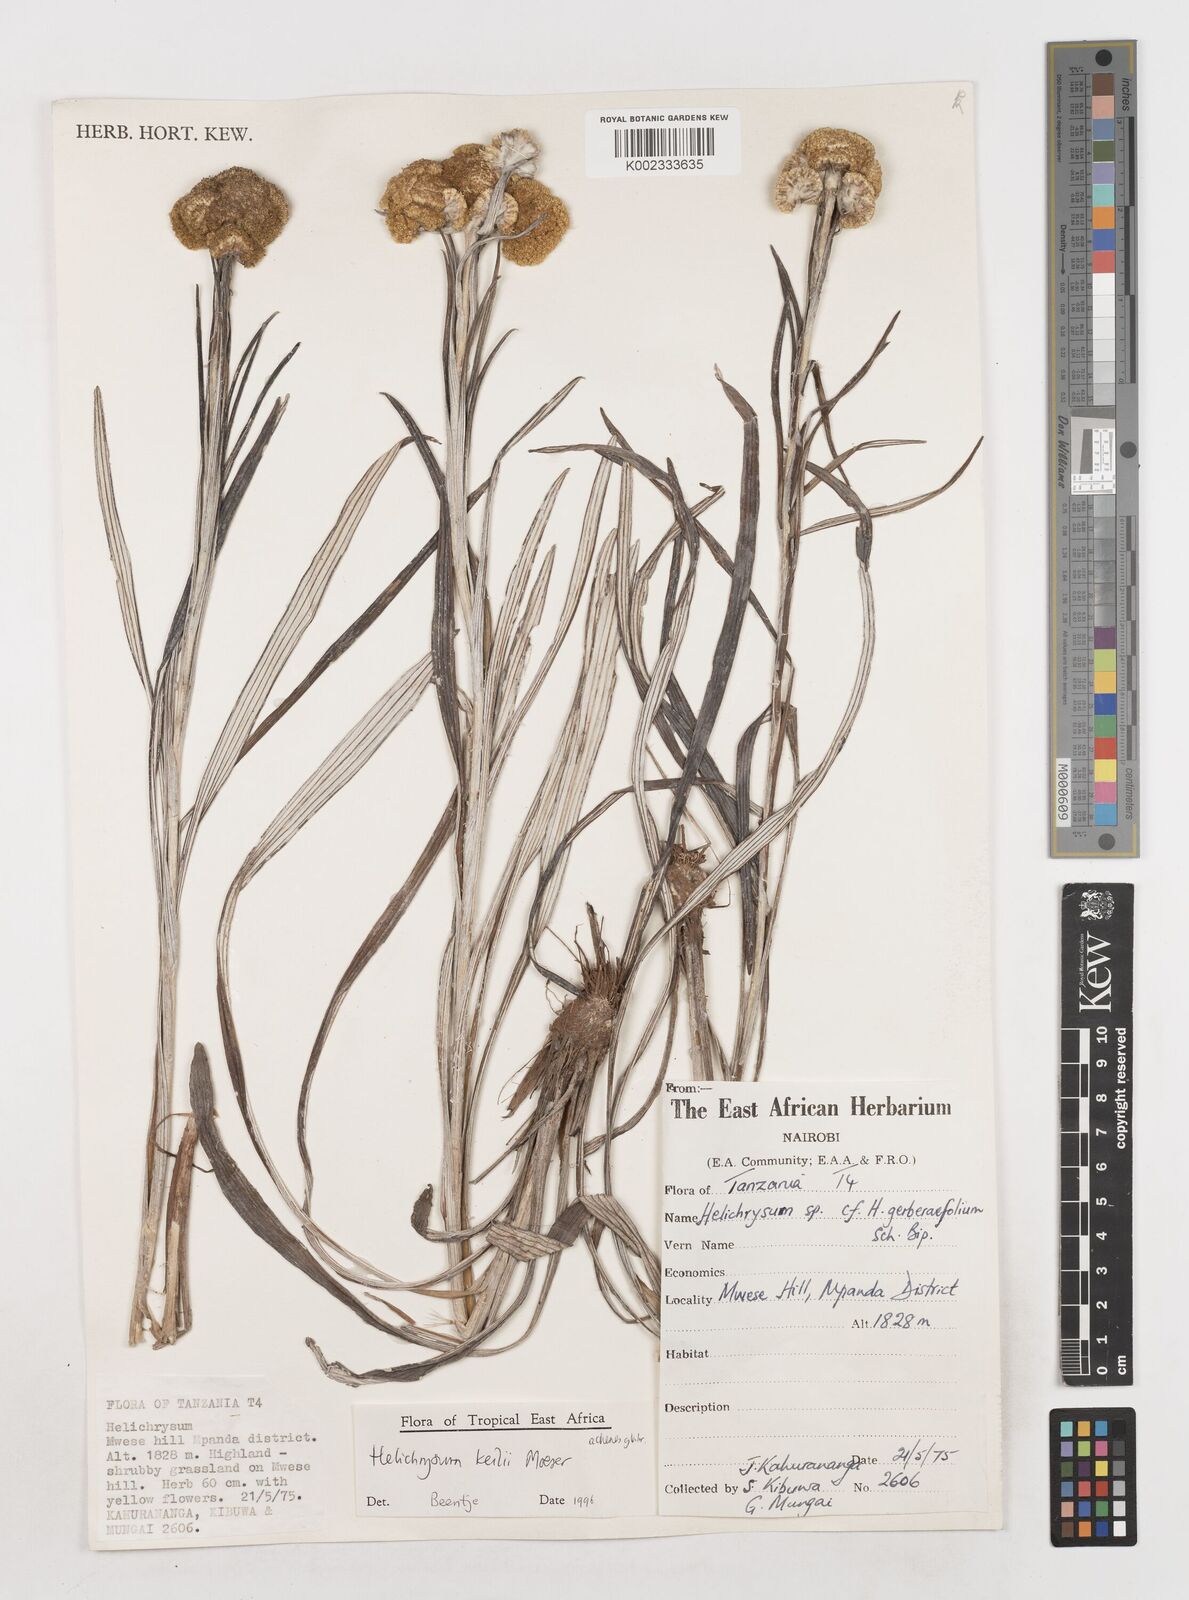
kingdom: Plantae
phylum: Tracheophyta
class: Magnoliopsida
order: Asterales
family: Asteraceae
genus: Helichrysum
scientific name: Helichrysum keilii
